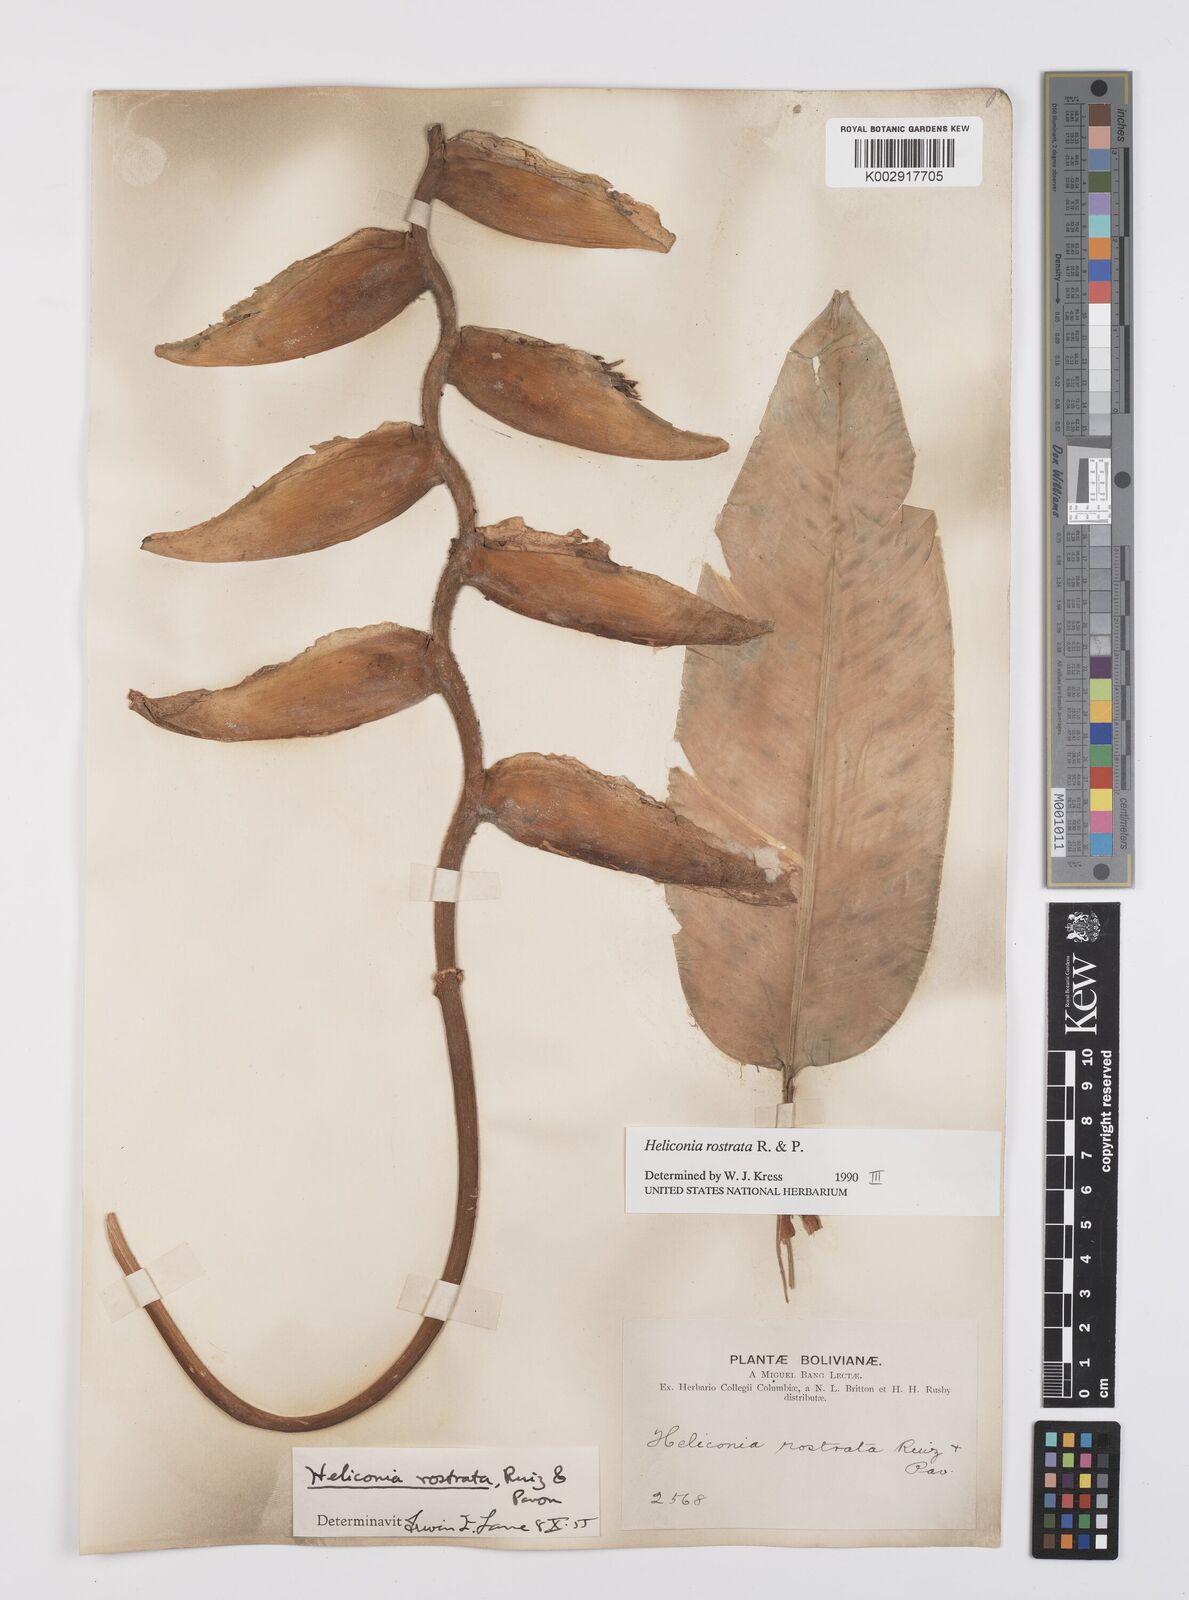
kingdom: Plantae
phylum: Tracheophyta
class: Liliopsida
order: Zingiberales
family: Heliconiaceae
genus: Heliconia
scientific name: Heliconia rostrata
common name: False bird of paradise
